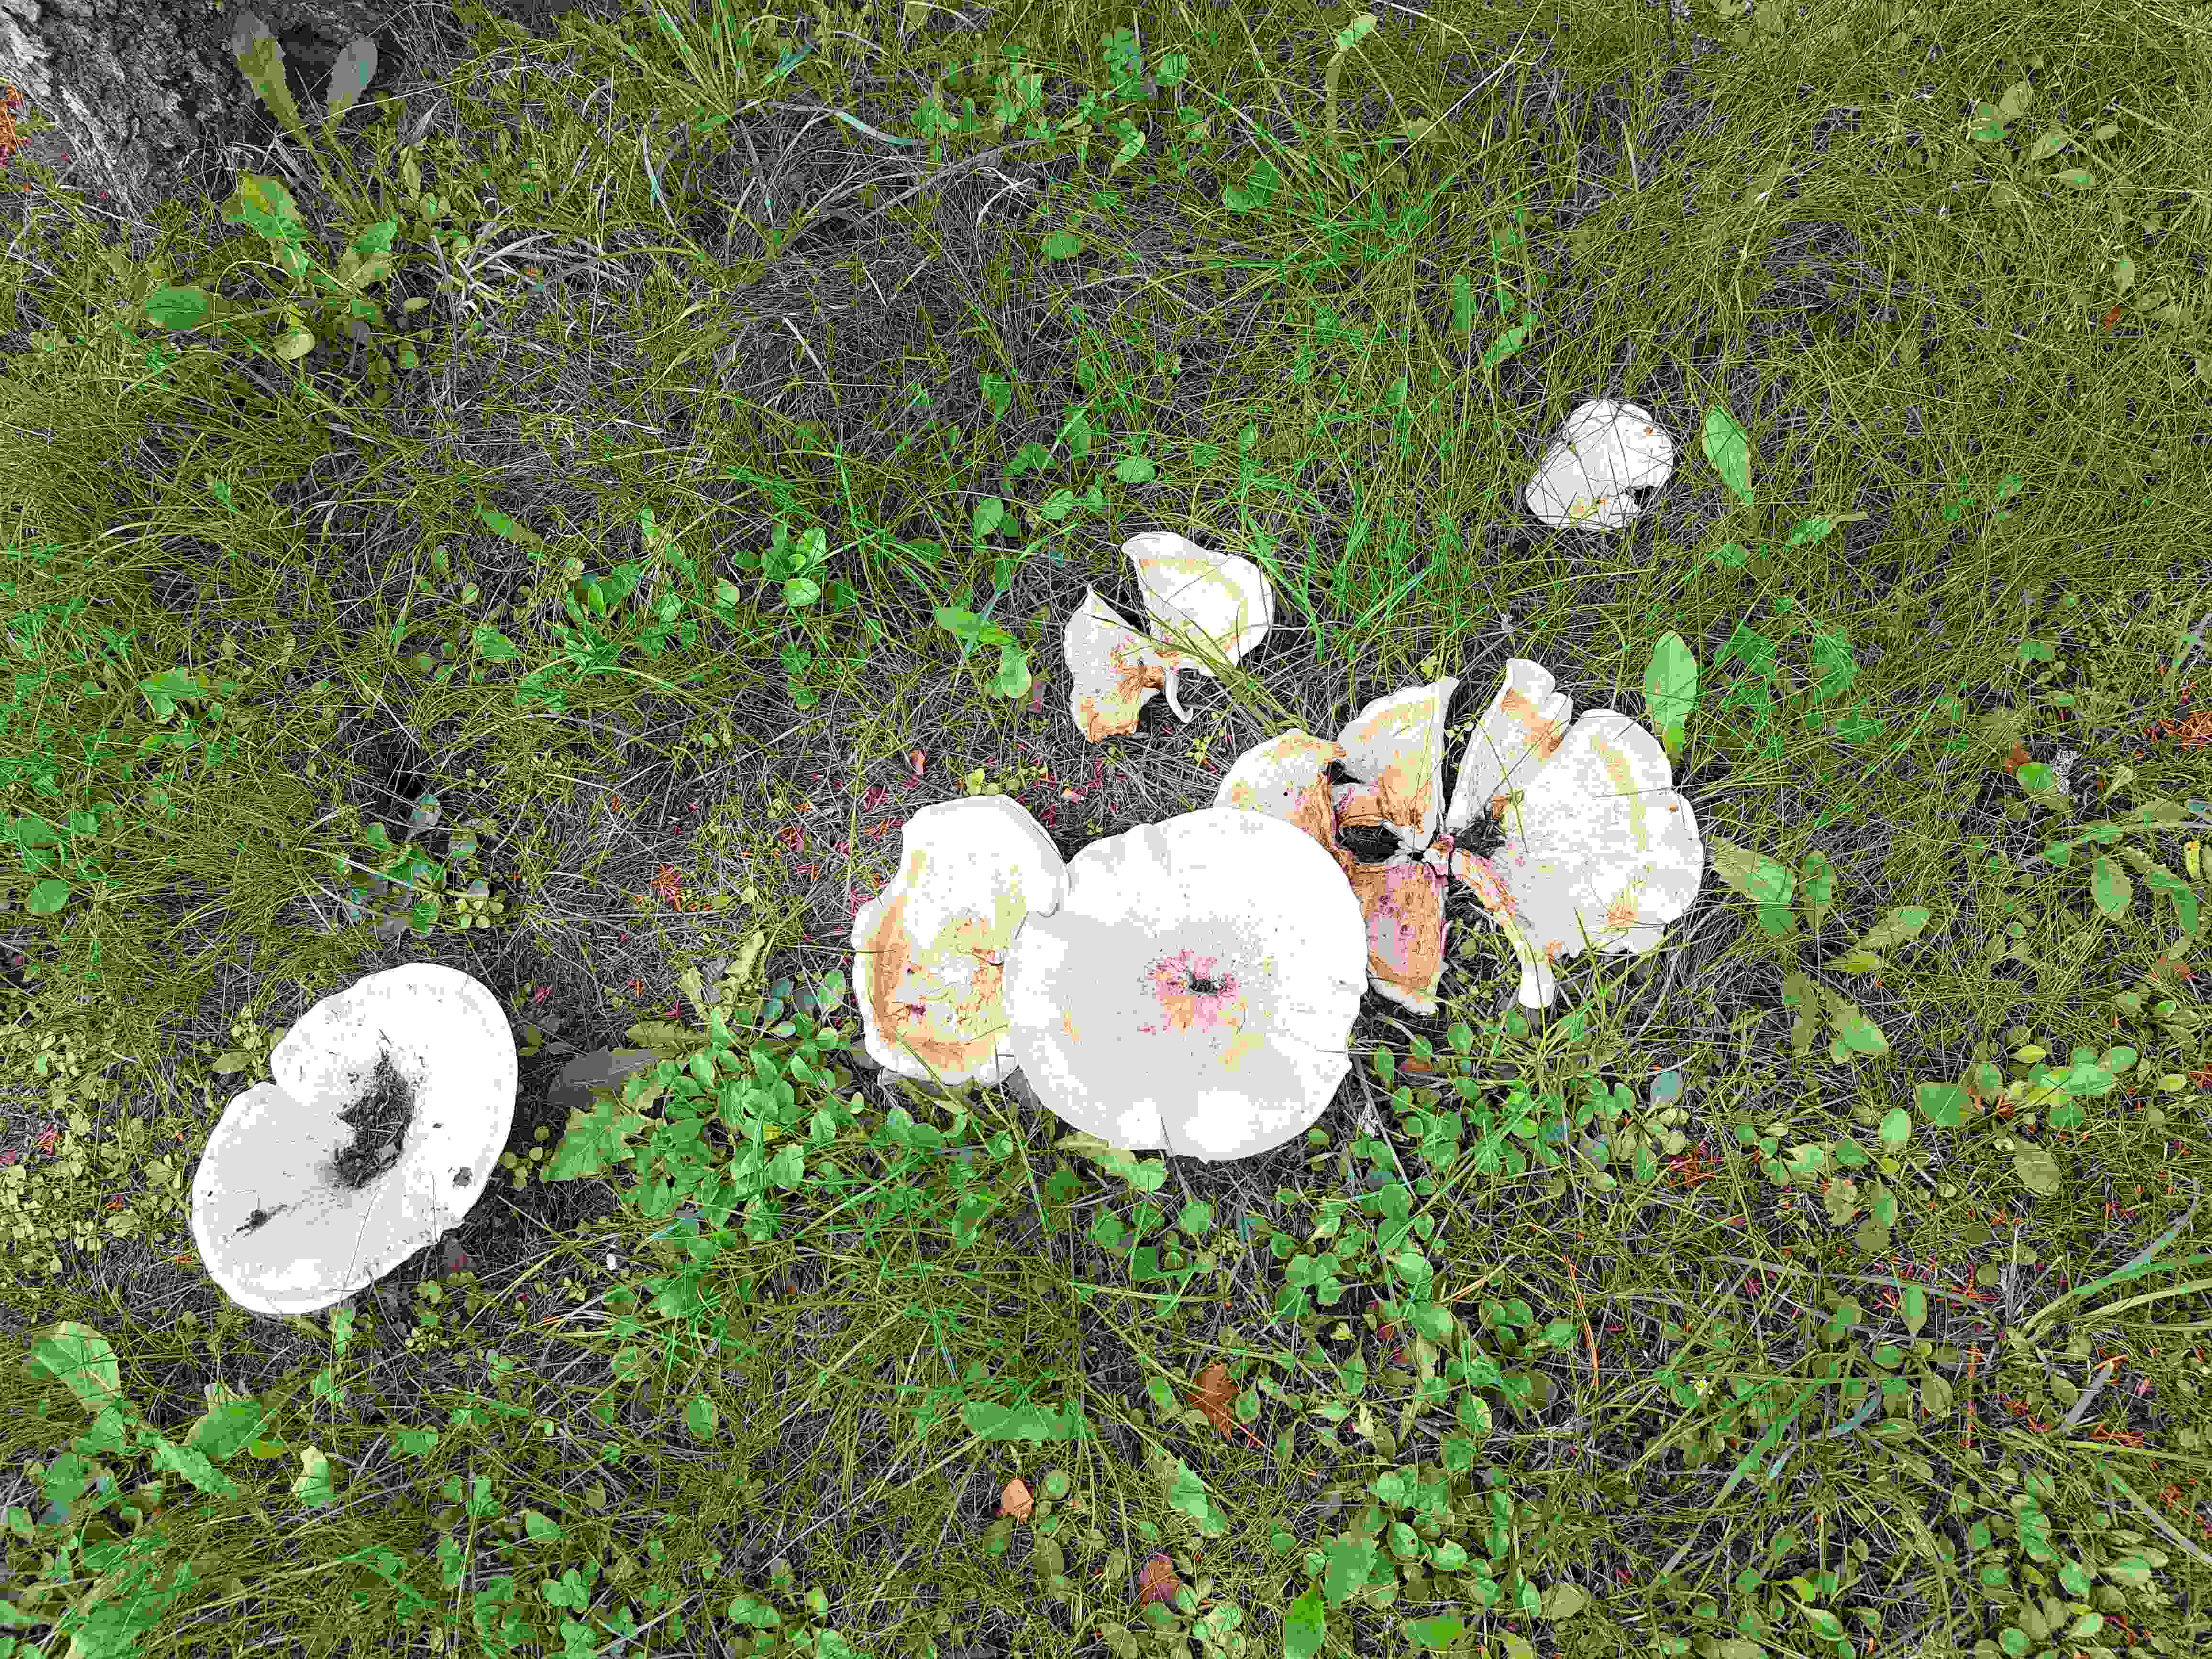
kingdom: Fungi
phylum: Basidiomycota
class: Agaricomycetes
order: Agaricales
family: Tricholomataceae
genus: Aspropaxillus
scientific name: Aspropaxillus giganteus
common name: kæmpe-tragtridderhat
